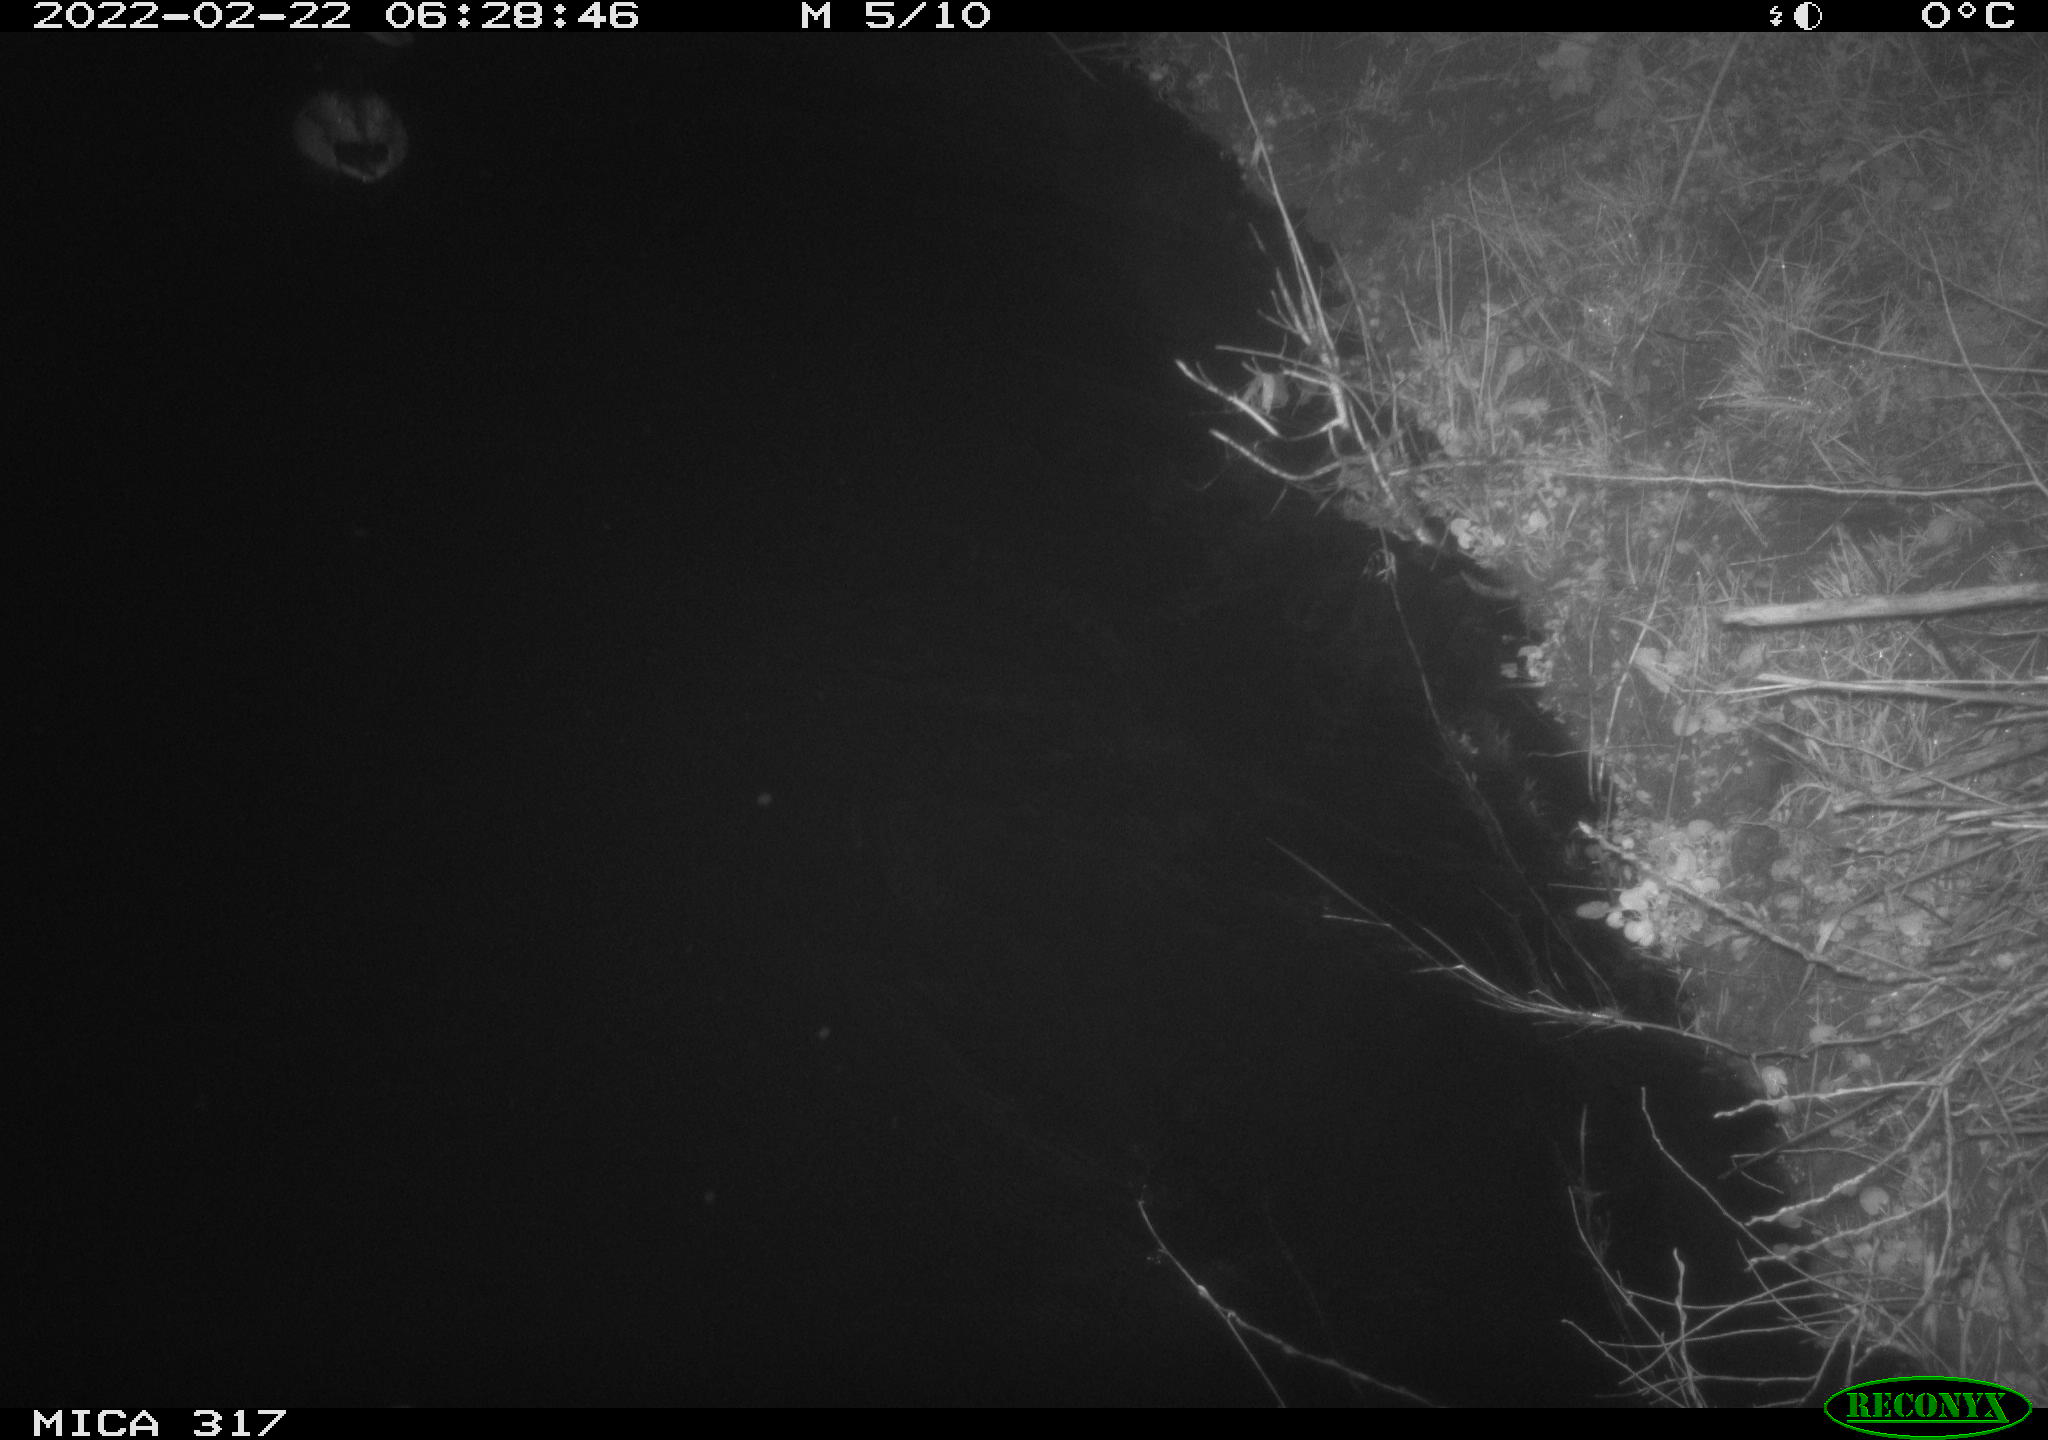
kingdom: Animalia
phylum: Chordata
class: Aves
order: Anseriformes
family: Anatidae
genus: Anas
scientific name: Anas platyrhynchos
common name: Mallard
